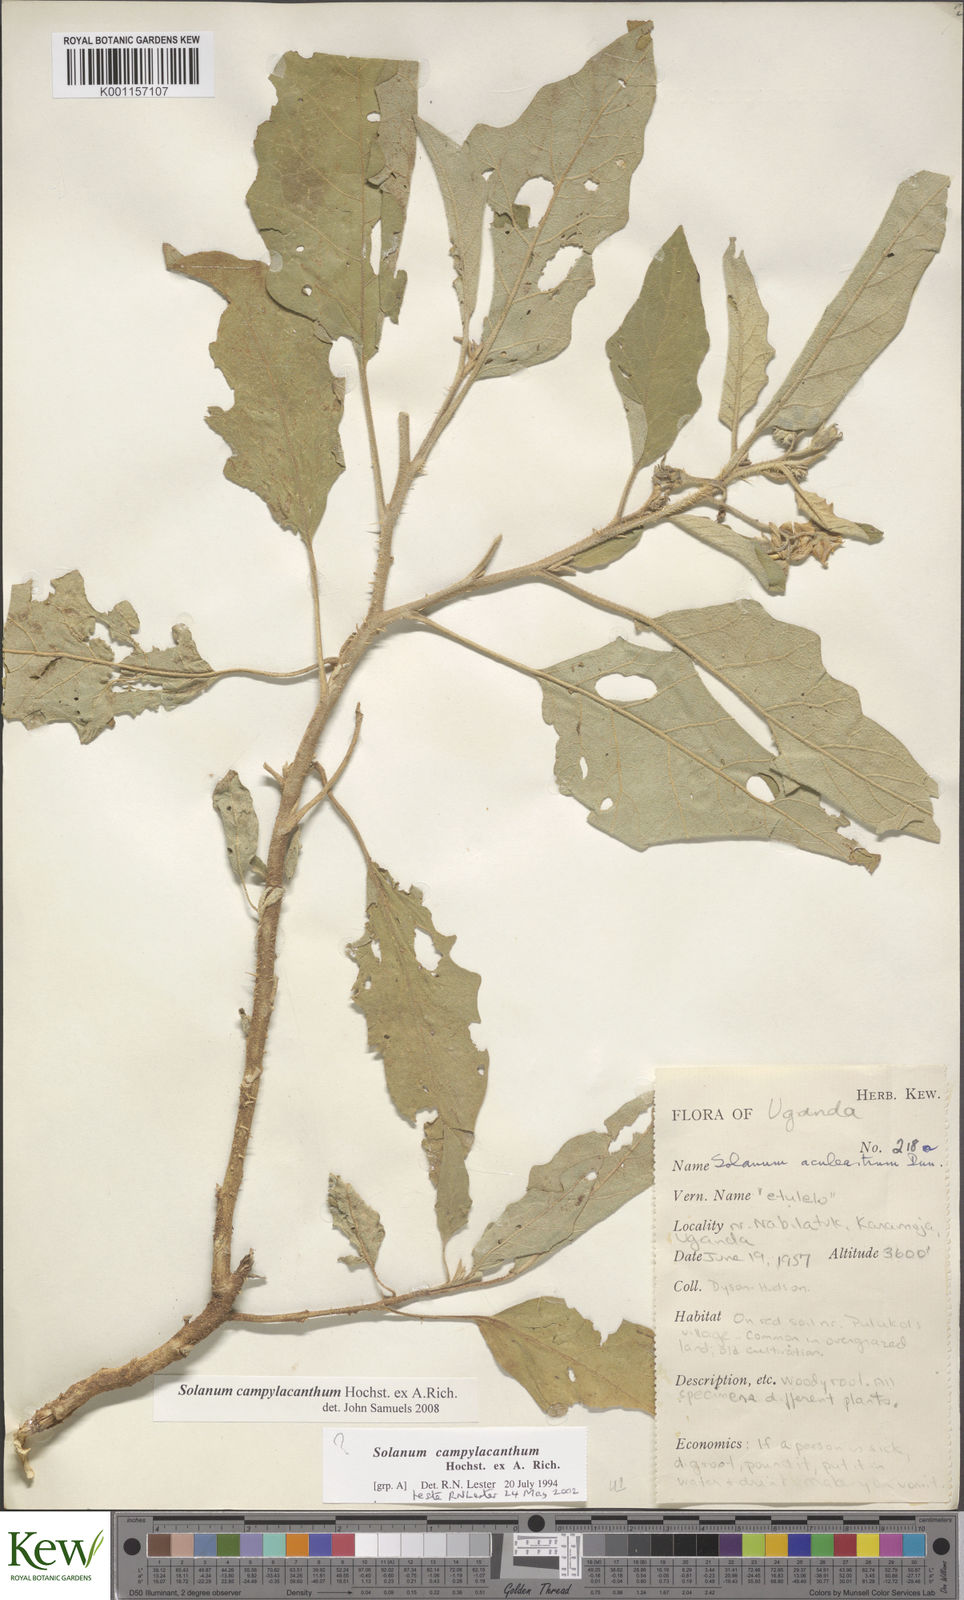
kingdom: Plantae
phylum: Tracheophyta
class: Magnoliopsida
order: Solanales
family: Solanaceae
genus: Solanum
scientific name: Solanum campylacanthum
